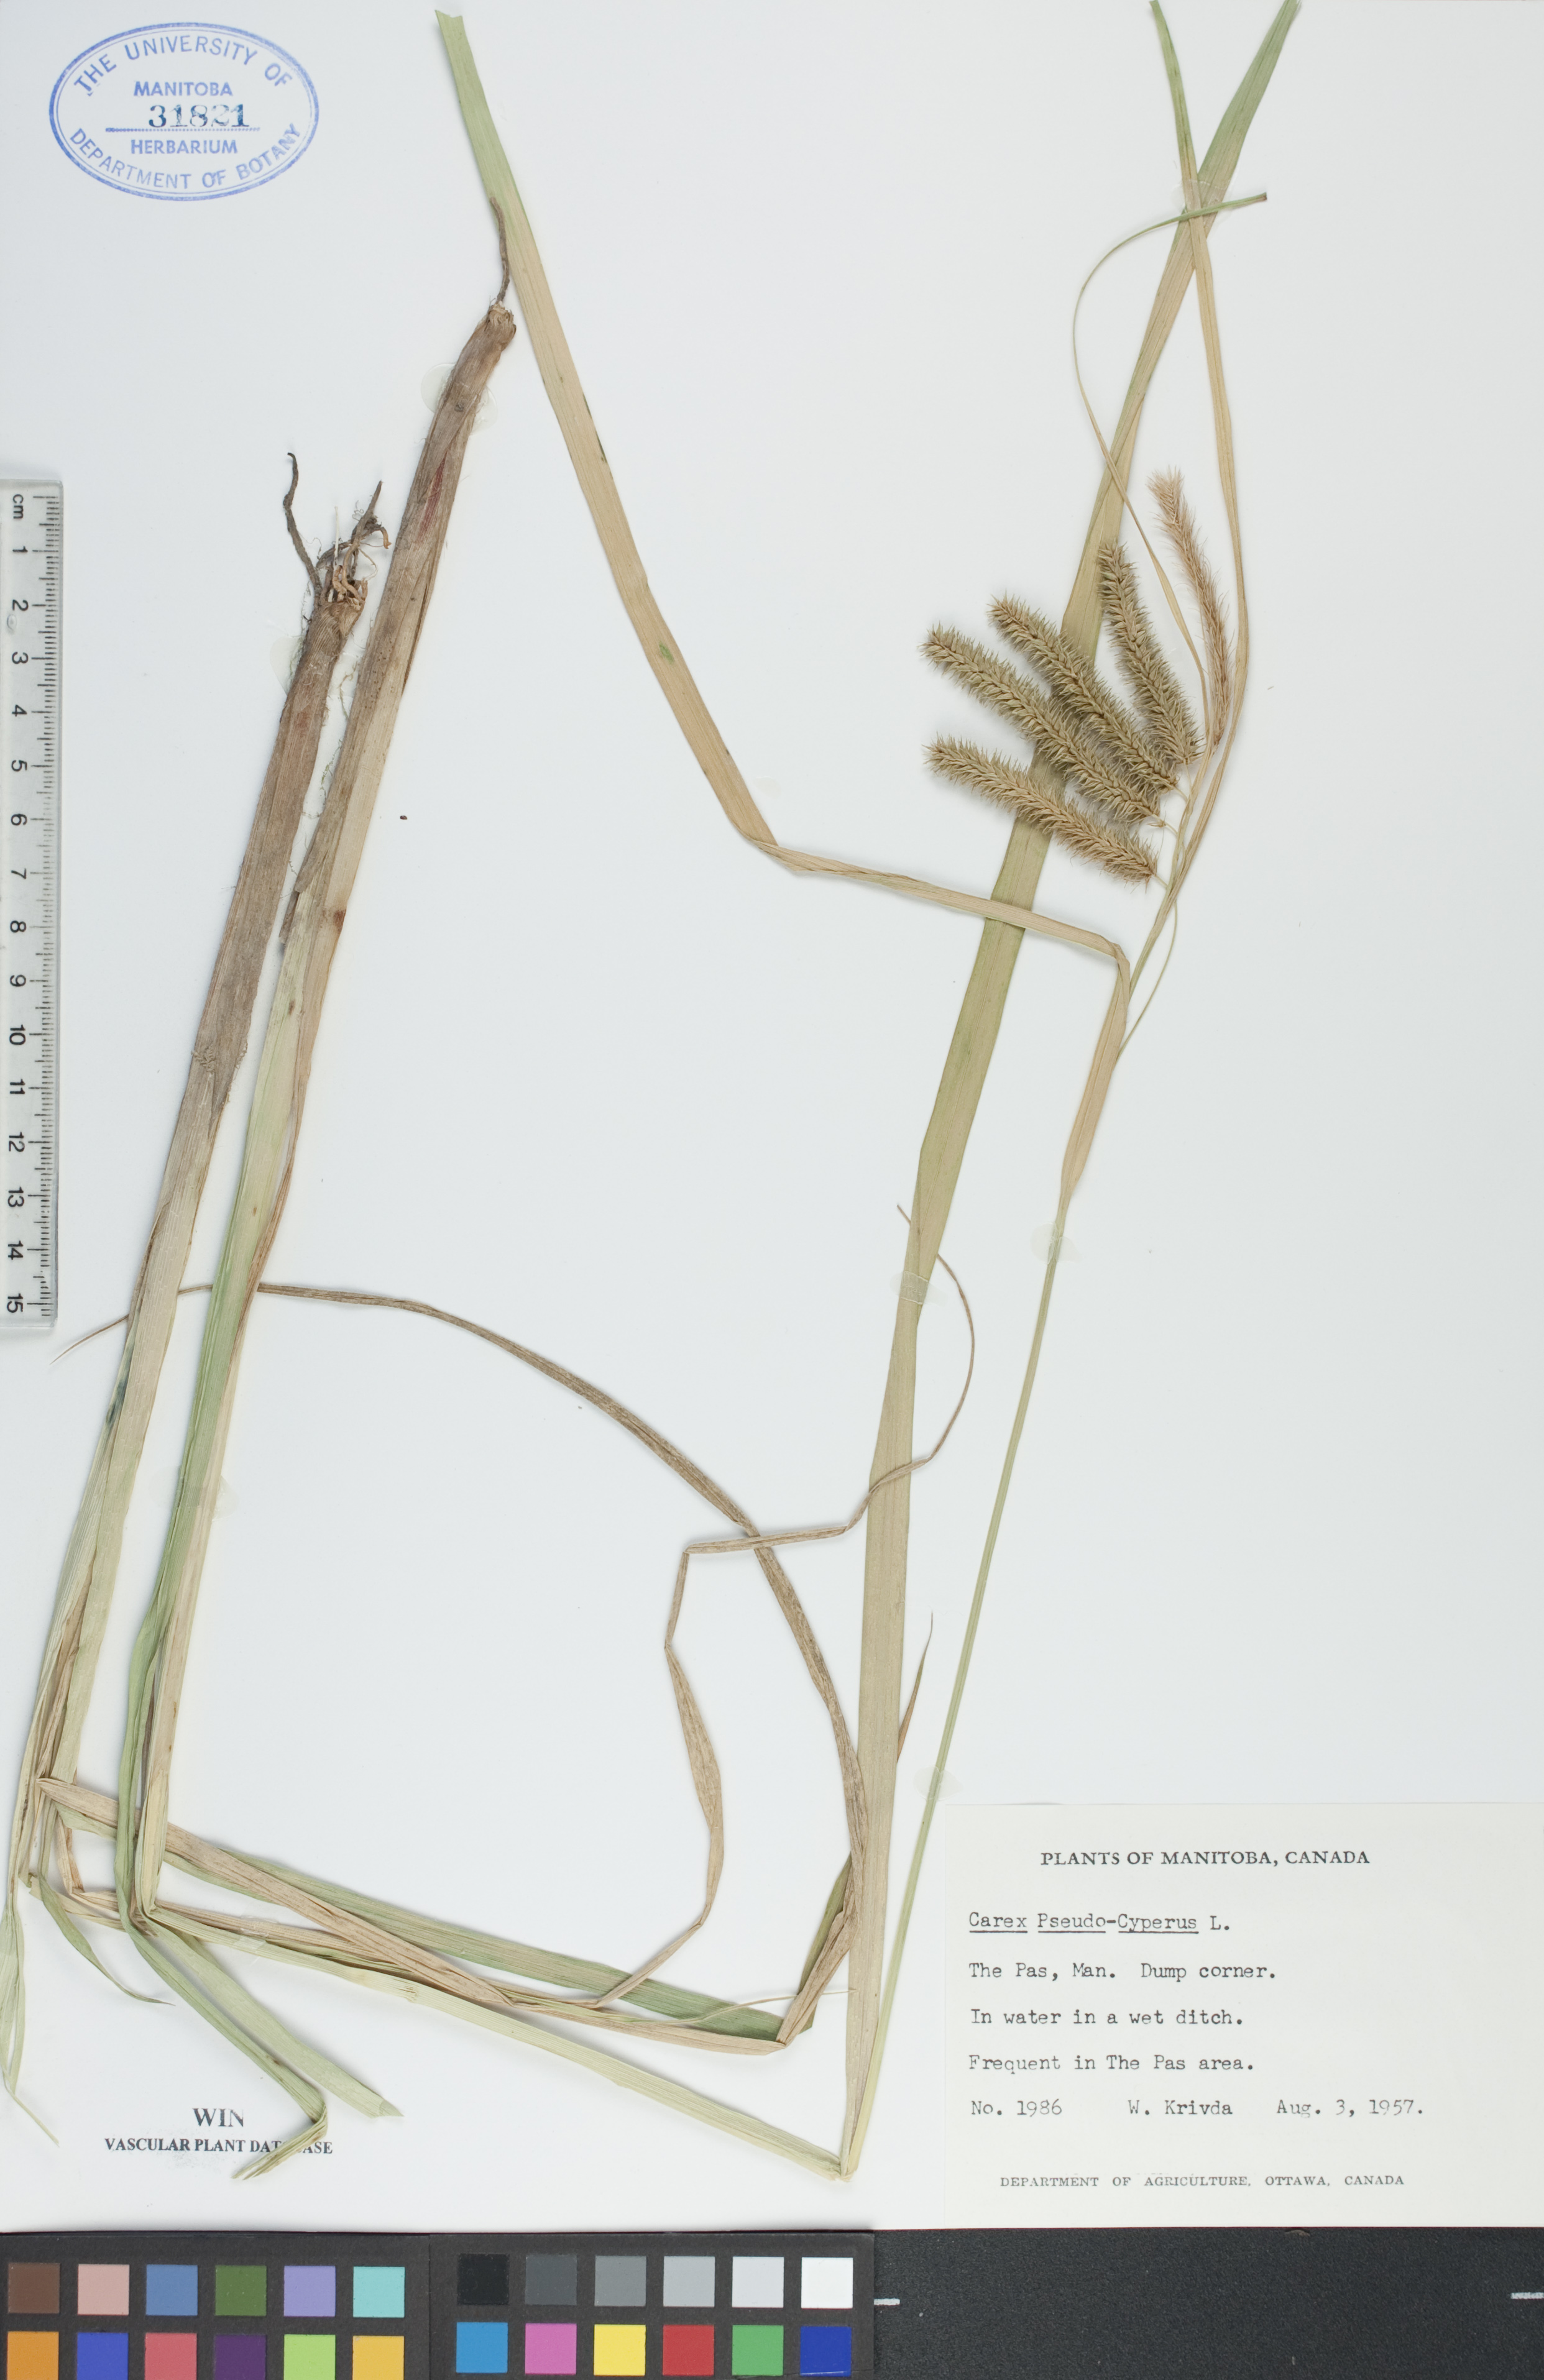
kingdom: Plantae
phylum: Tracheophyta
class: Liliopsida
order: Poales
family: Cyperaceae
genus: Carex
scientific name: Carex pseudocyperus
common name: Cyperus sedge
